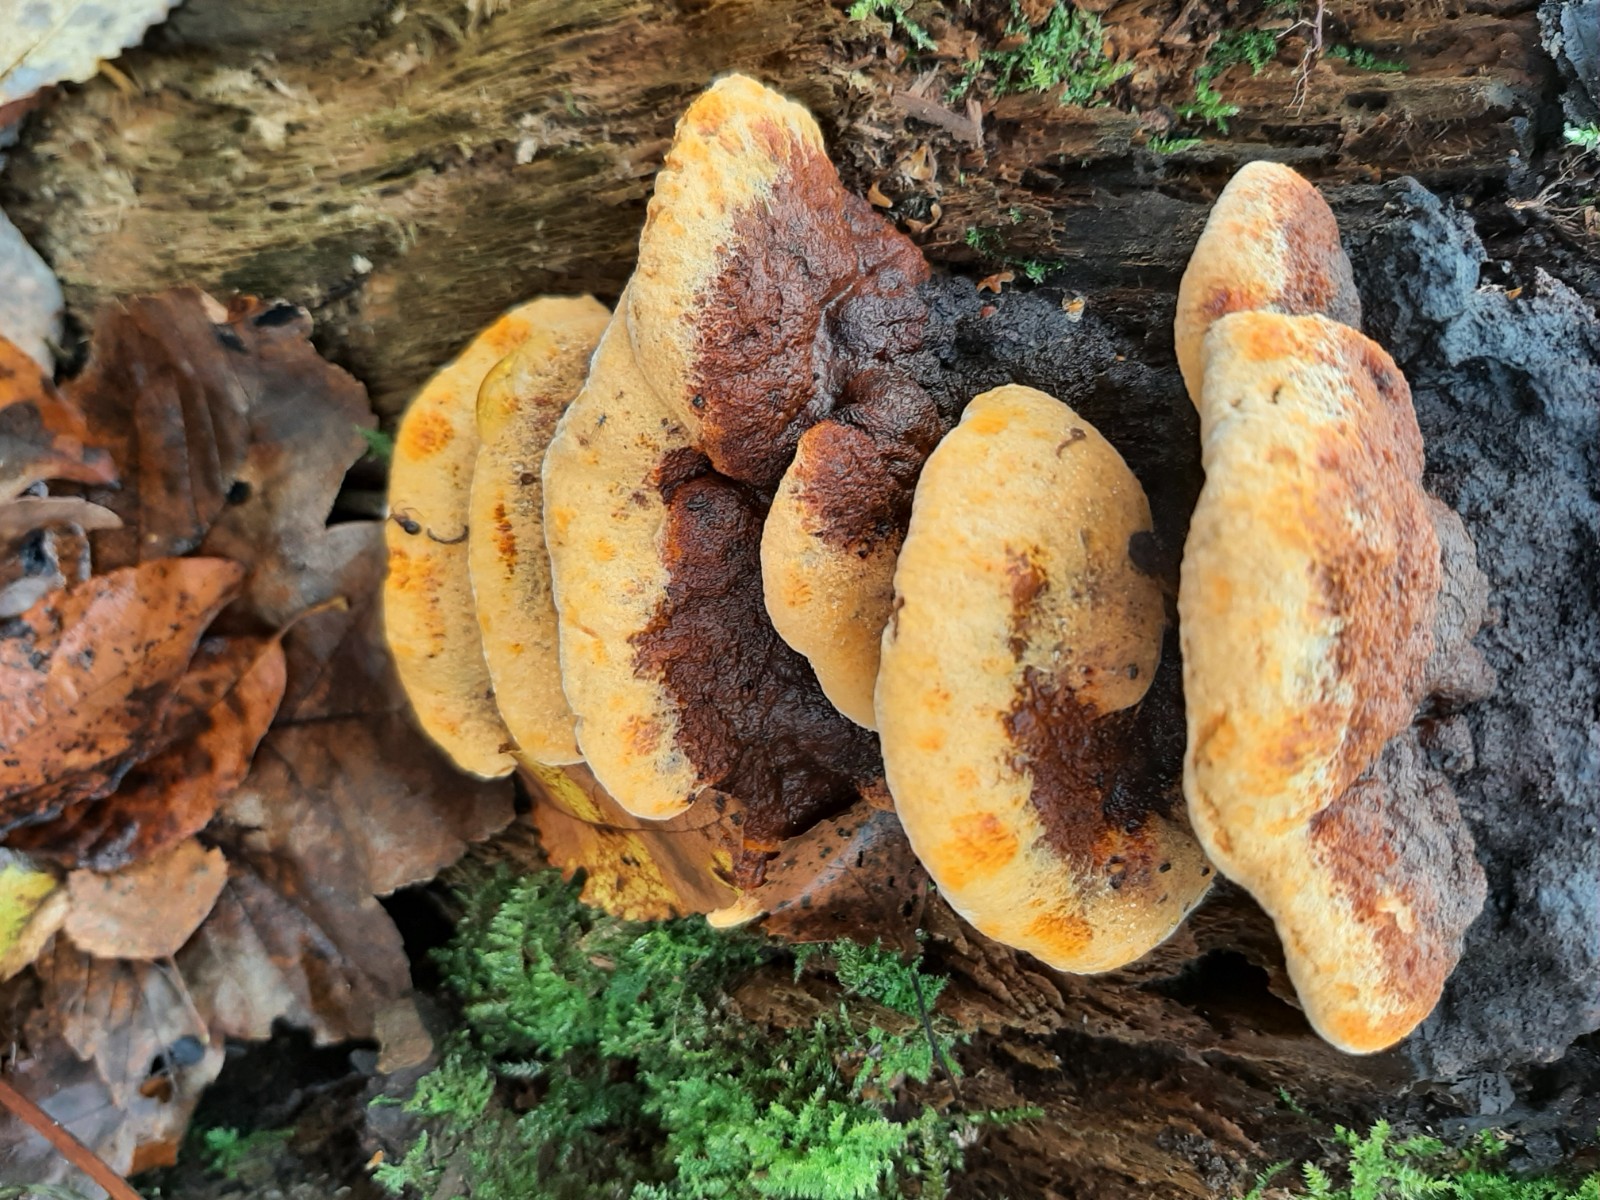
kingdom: Fungi
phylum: Basidiomycota
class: Agaricomycetes
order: Gloeophyllales
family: Gloeophyllaceae
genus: Gloeophyllum
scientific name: Gloeophyllum odoratum
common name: duftende korkhat
